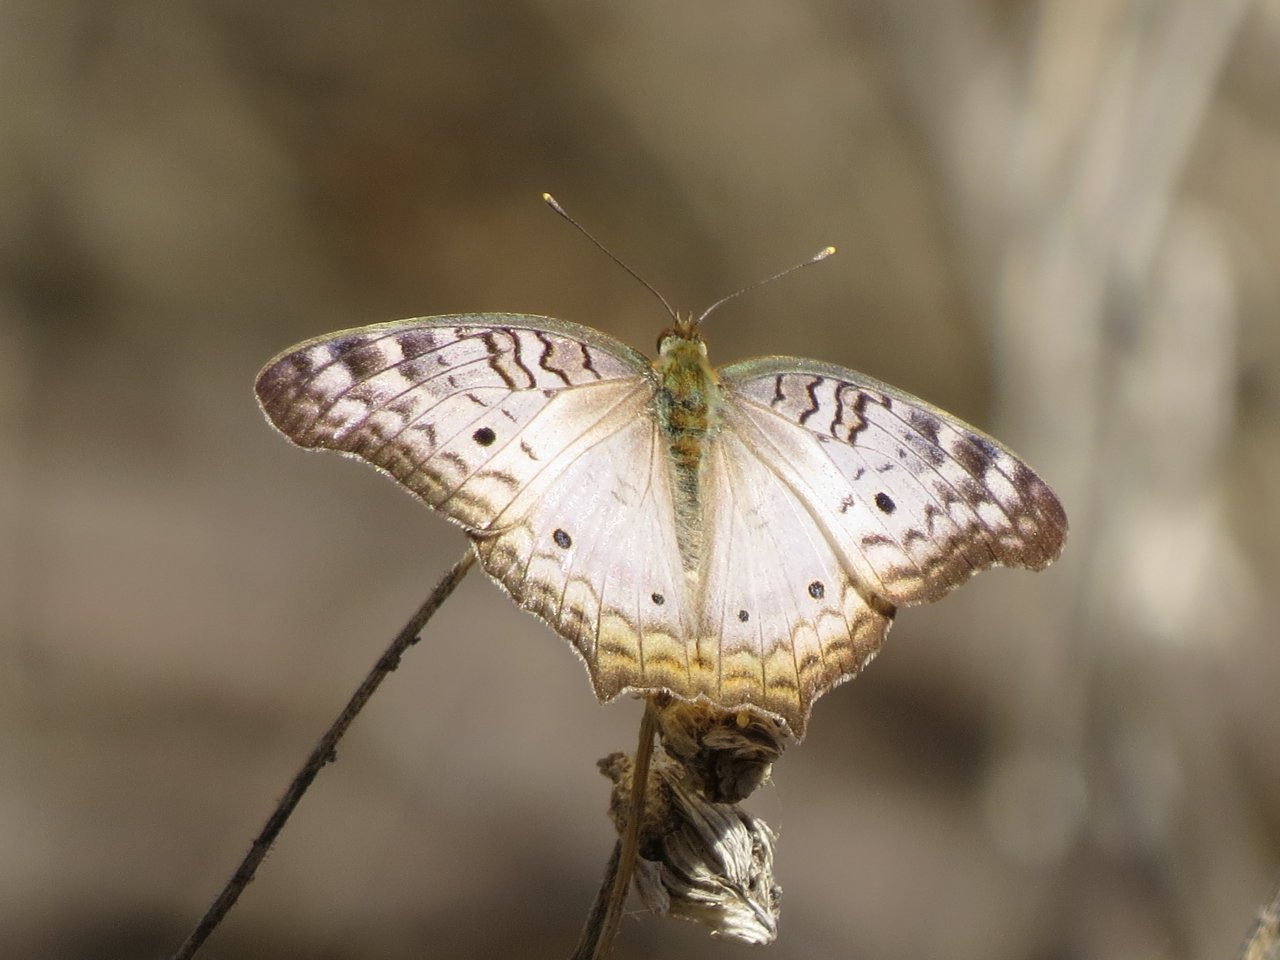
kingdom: Animalia
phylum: Arthropoda
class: Insecta
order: Lepidoptera
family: Nymphalidae
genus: Anartia
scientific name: Anartia jatrophae
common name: White Peacock
